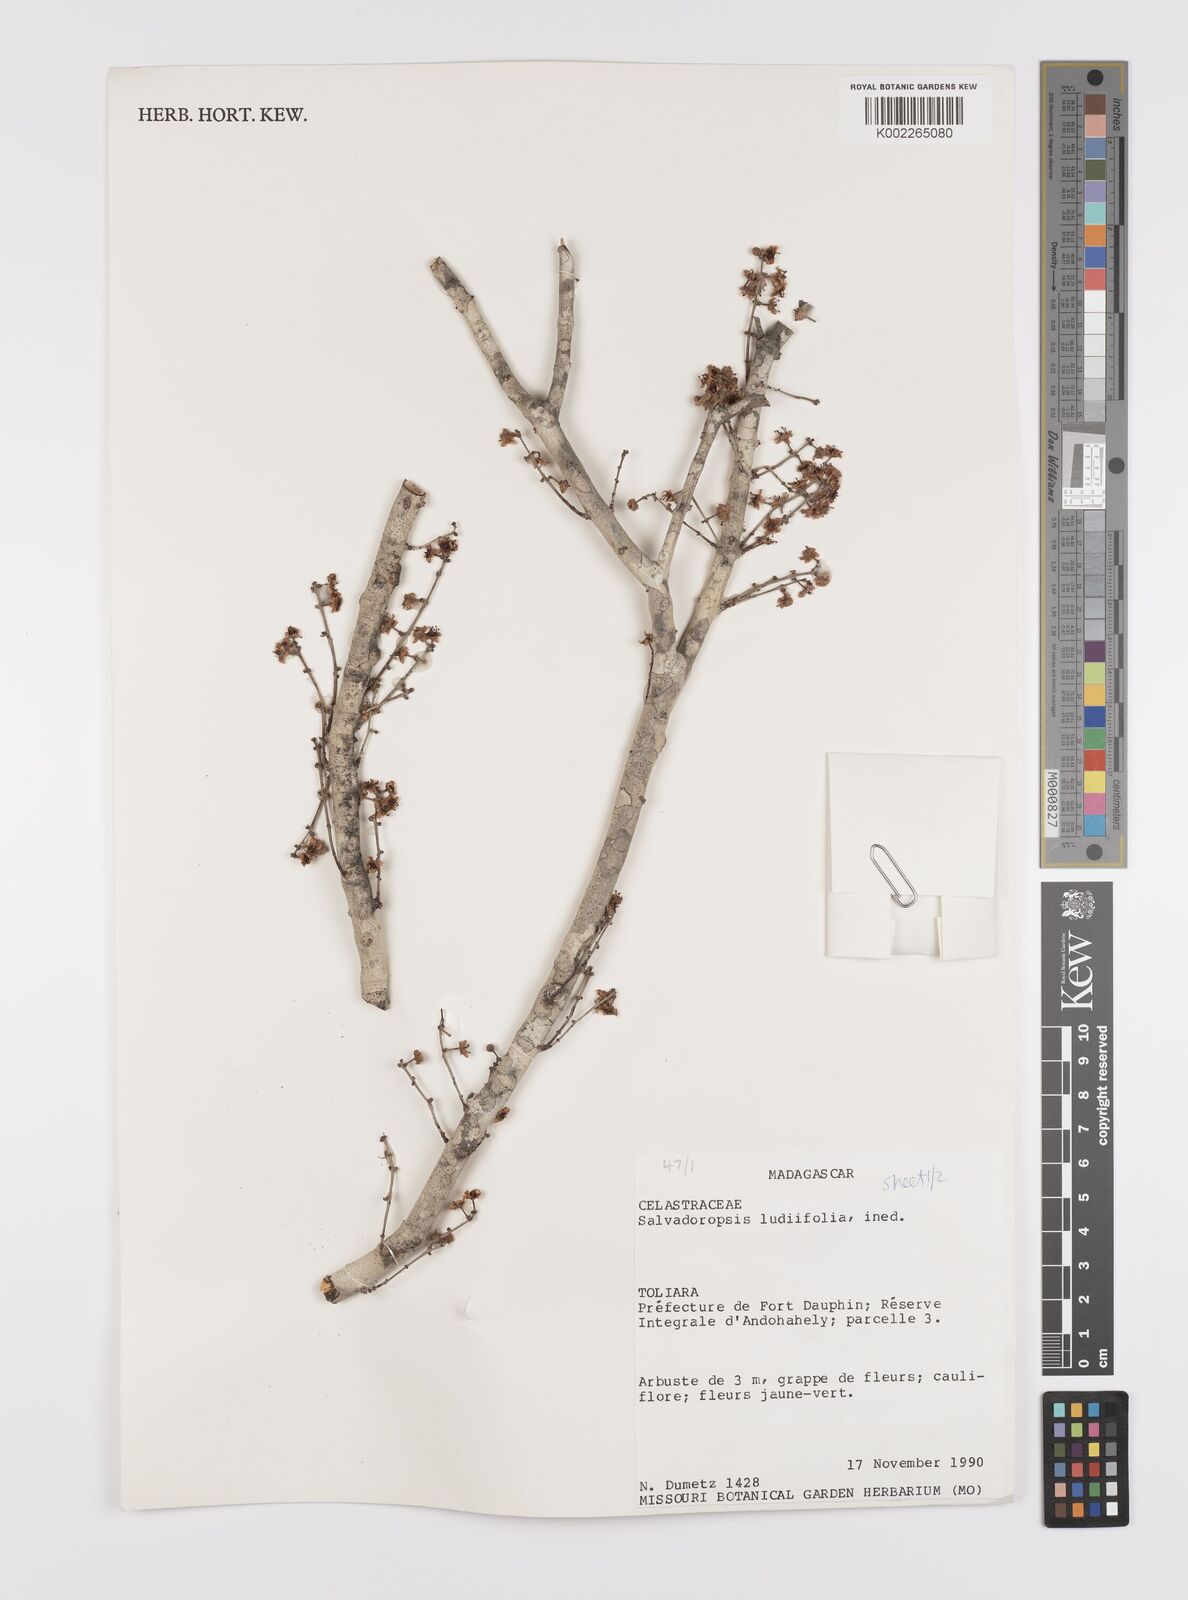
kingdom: Plantae
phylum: Tracheophyta
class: Magnoliopsida
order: Celastrales
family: Celastraceae
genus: Salvadoropsis
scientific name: Salvadoropsis
